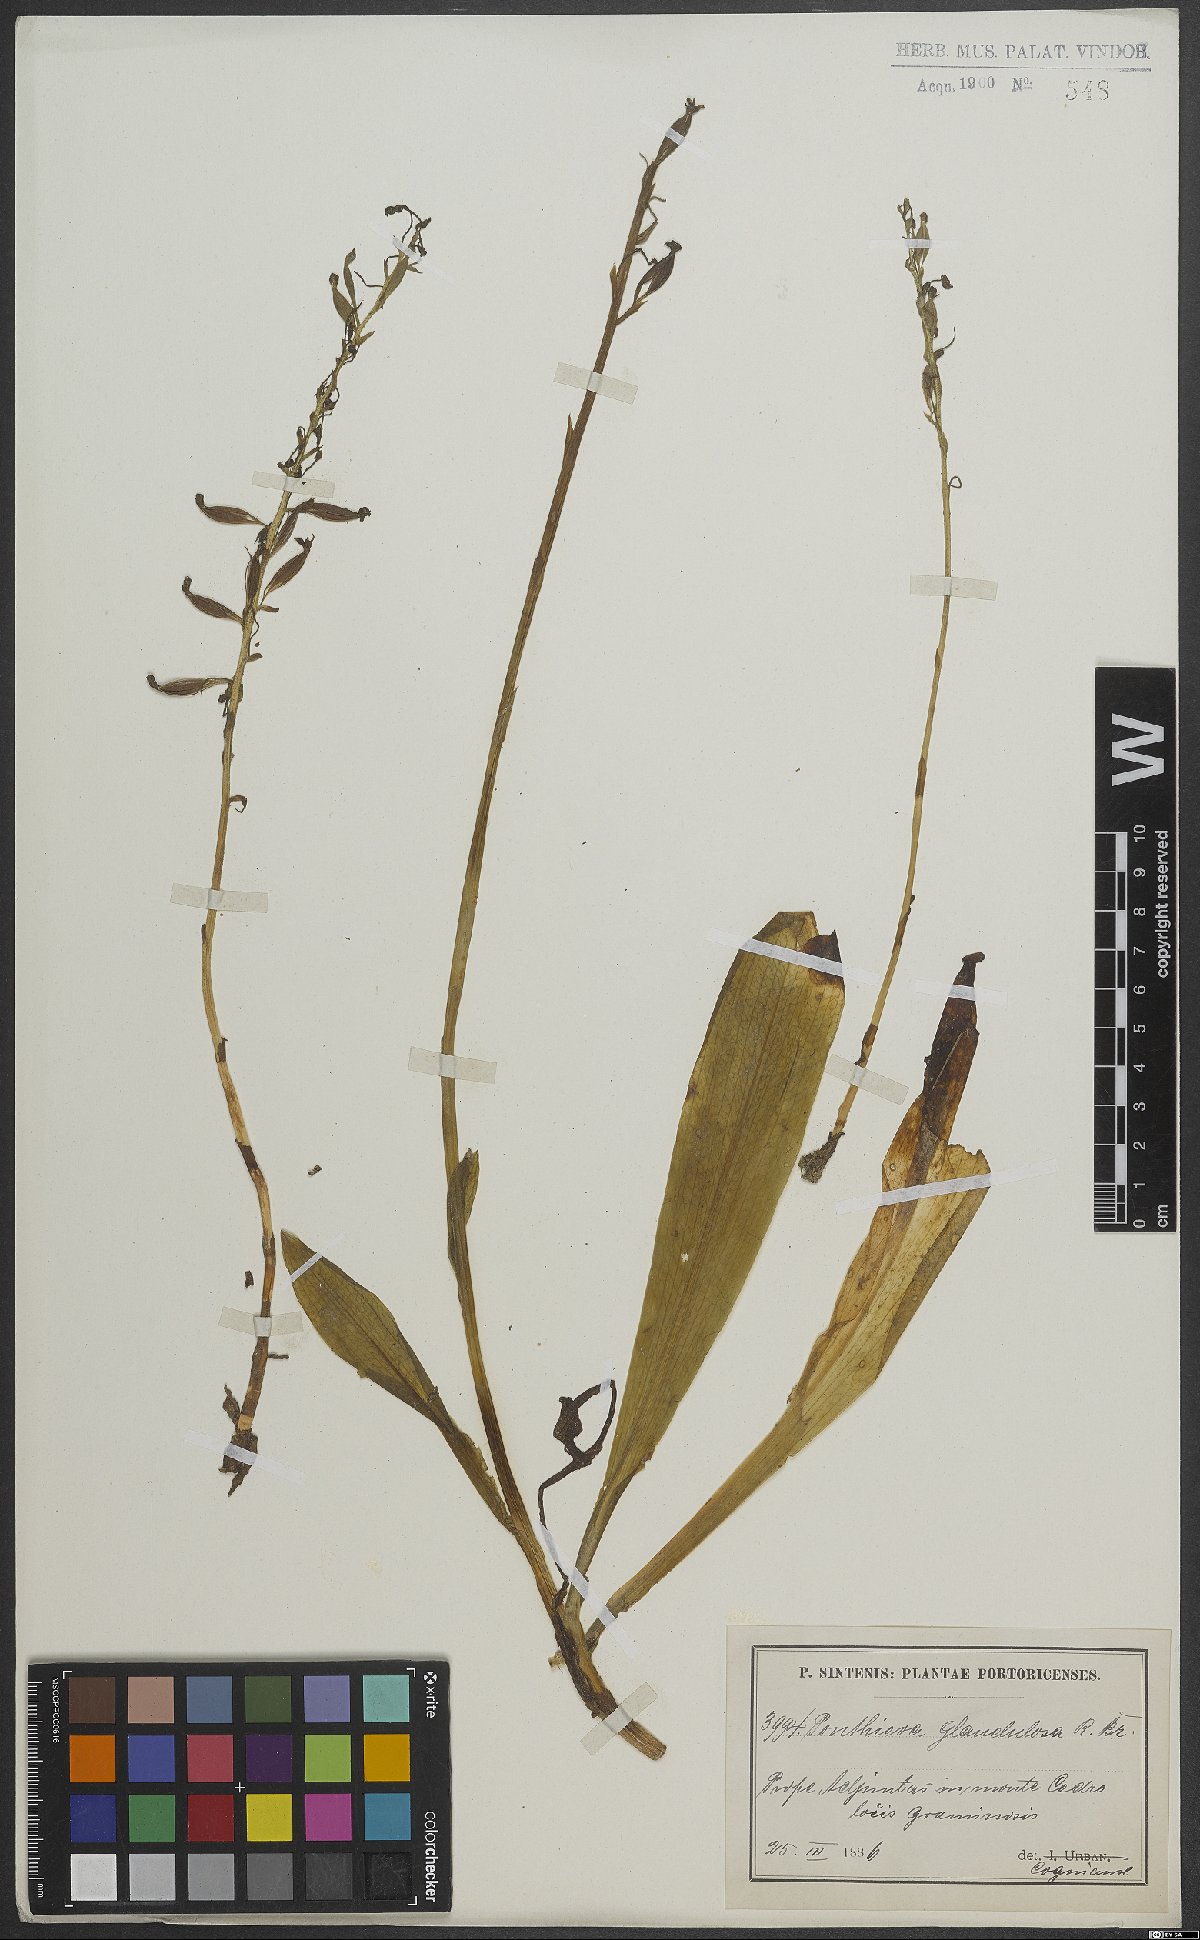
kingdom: Plantae
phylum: Tracheophyta
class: Liliopsida
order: Asparagales
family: Orchidaceae
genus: Ponthieva
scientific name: Ponthieva glandulosa
